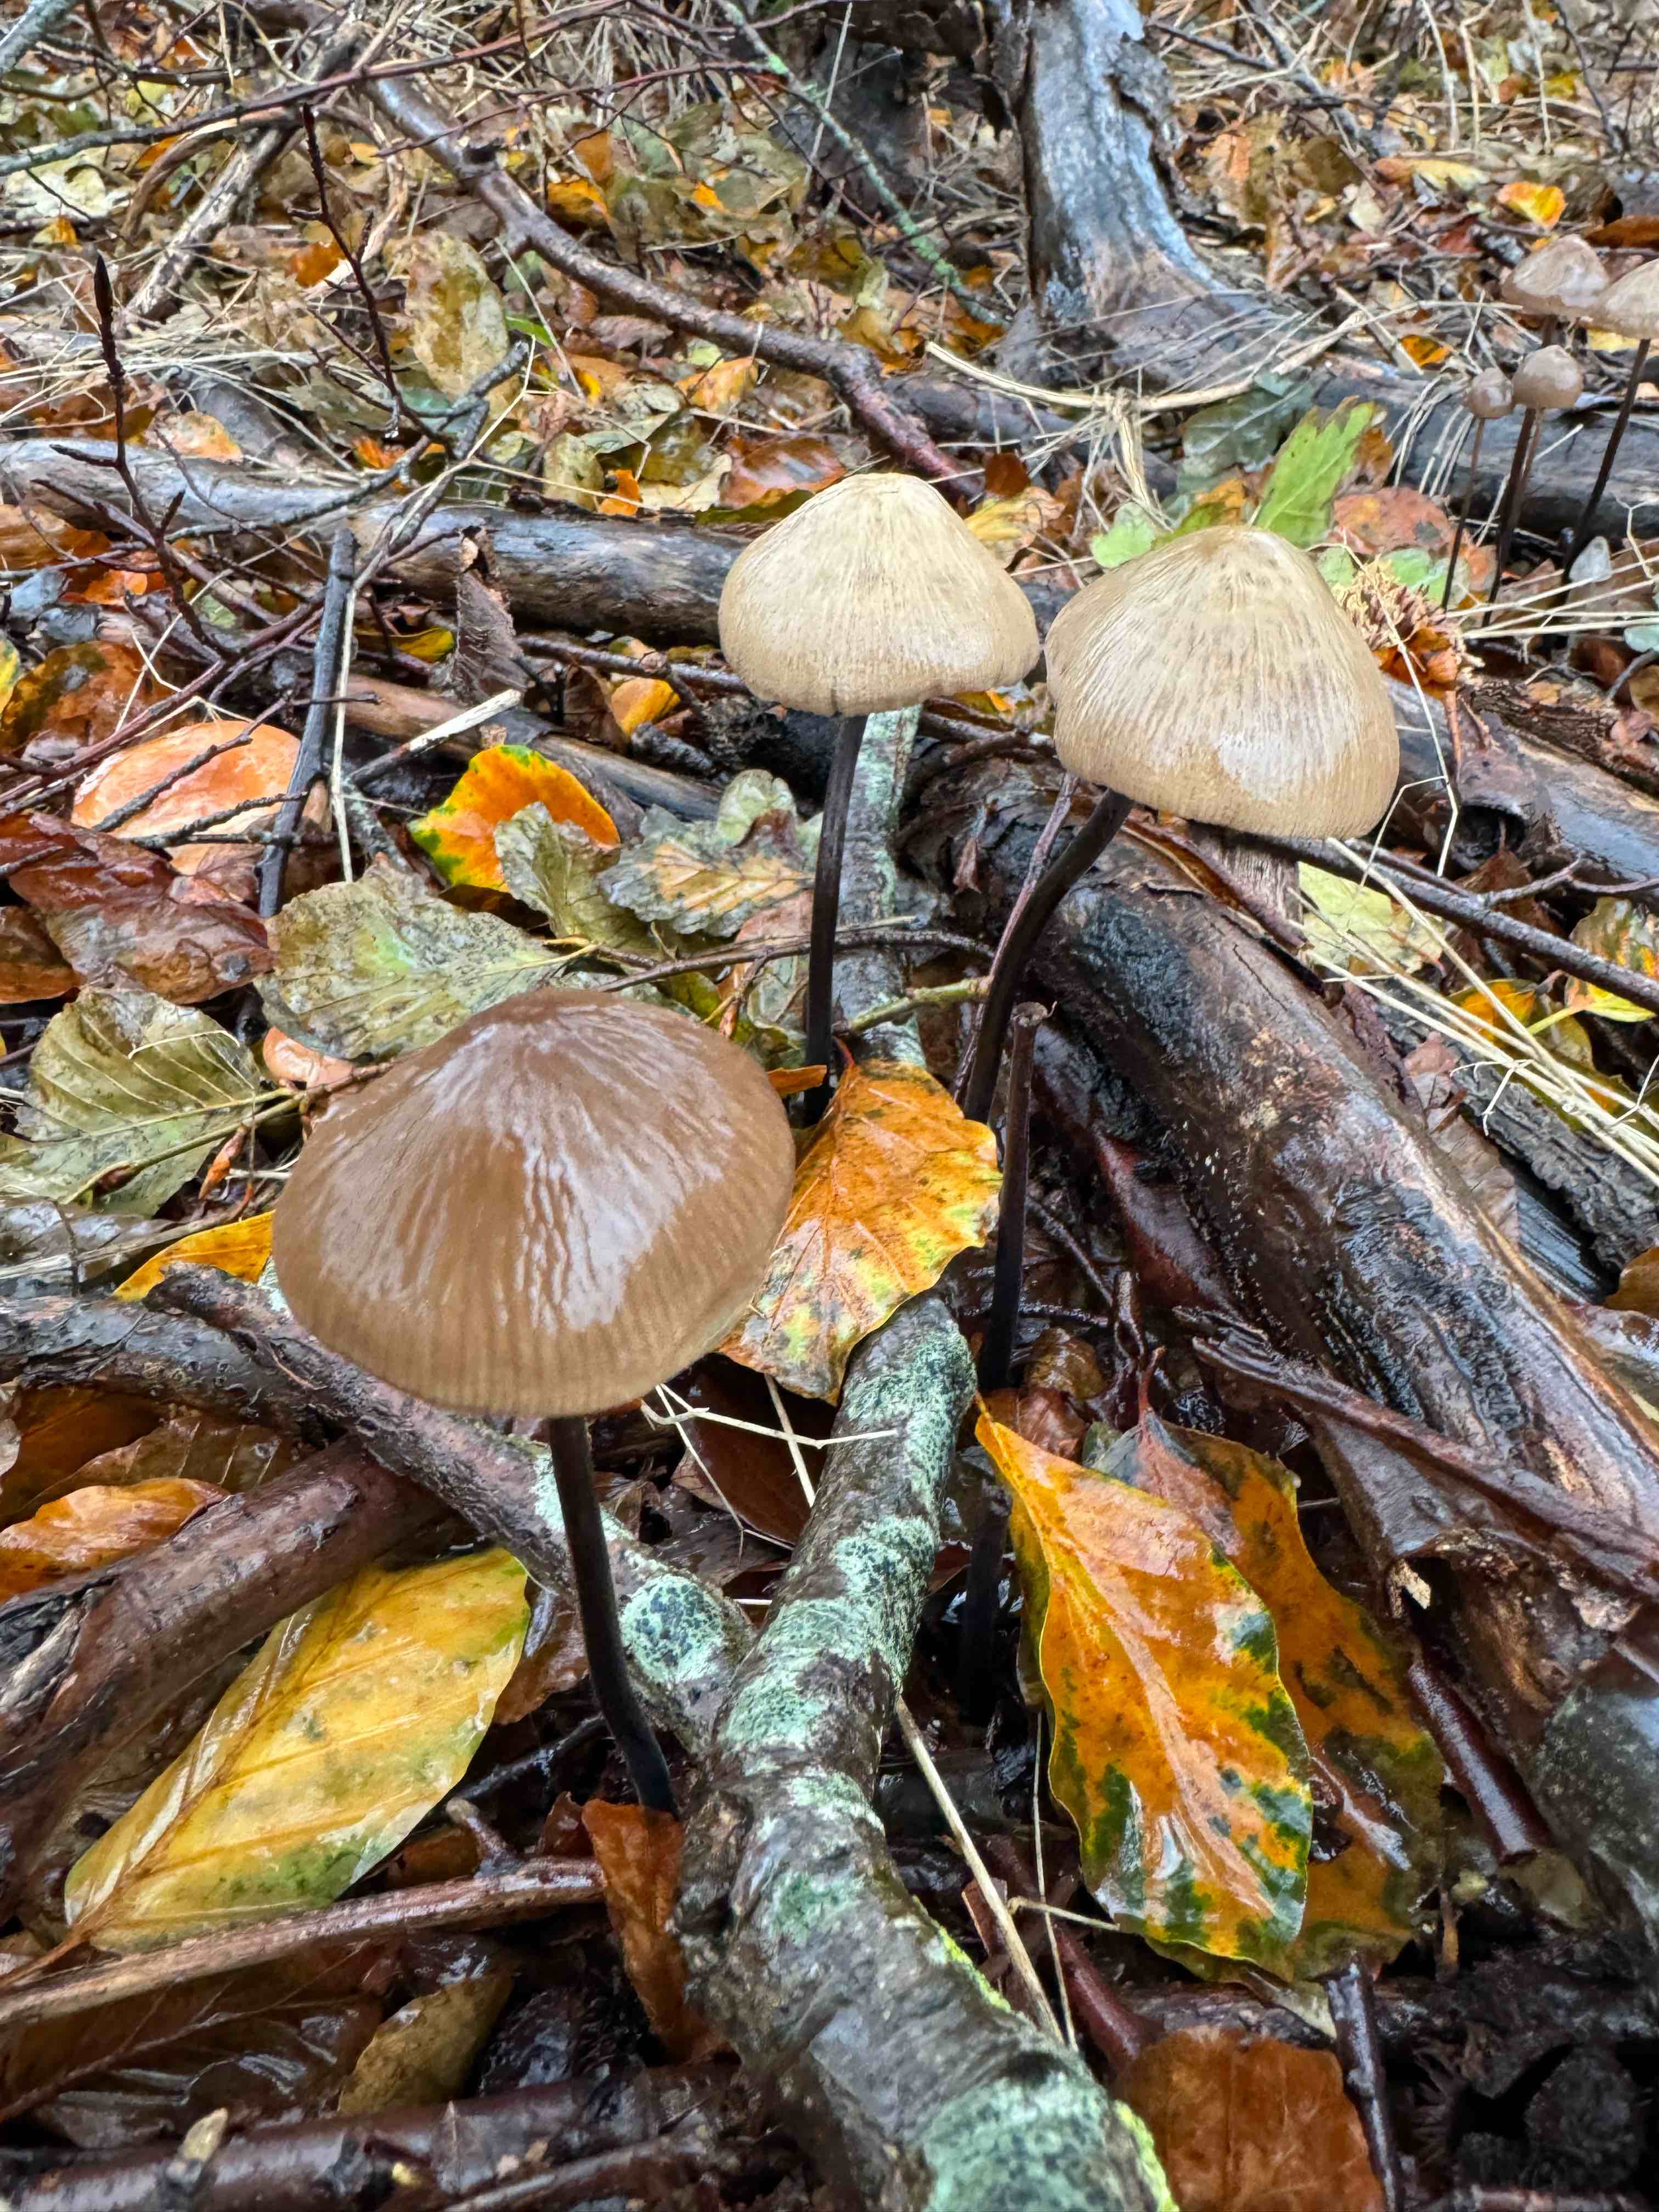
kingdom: Fungi
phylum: Basidiomycota
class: Agaricomycetes
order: Agaricales
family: Omphalotaceae
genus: Mycetinis
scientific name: Mycetinis alliaceus
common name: stor løghat
